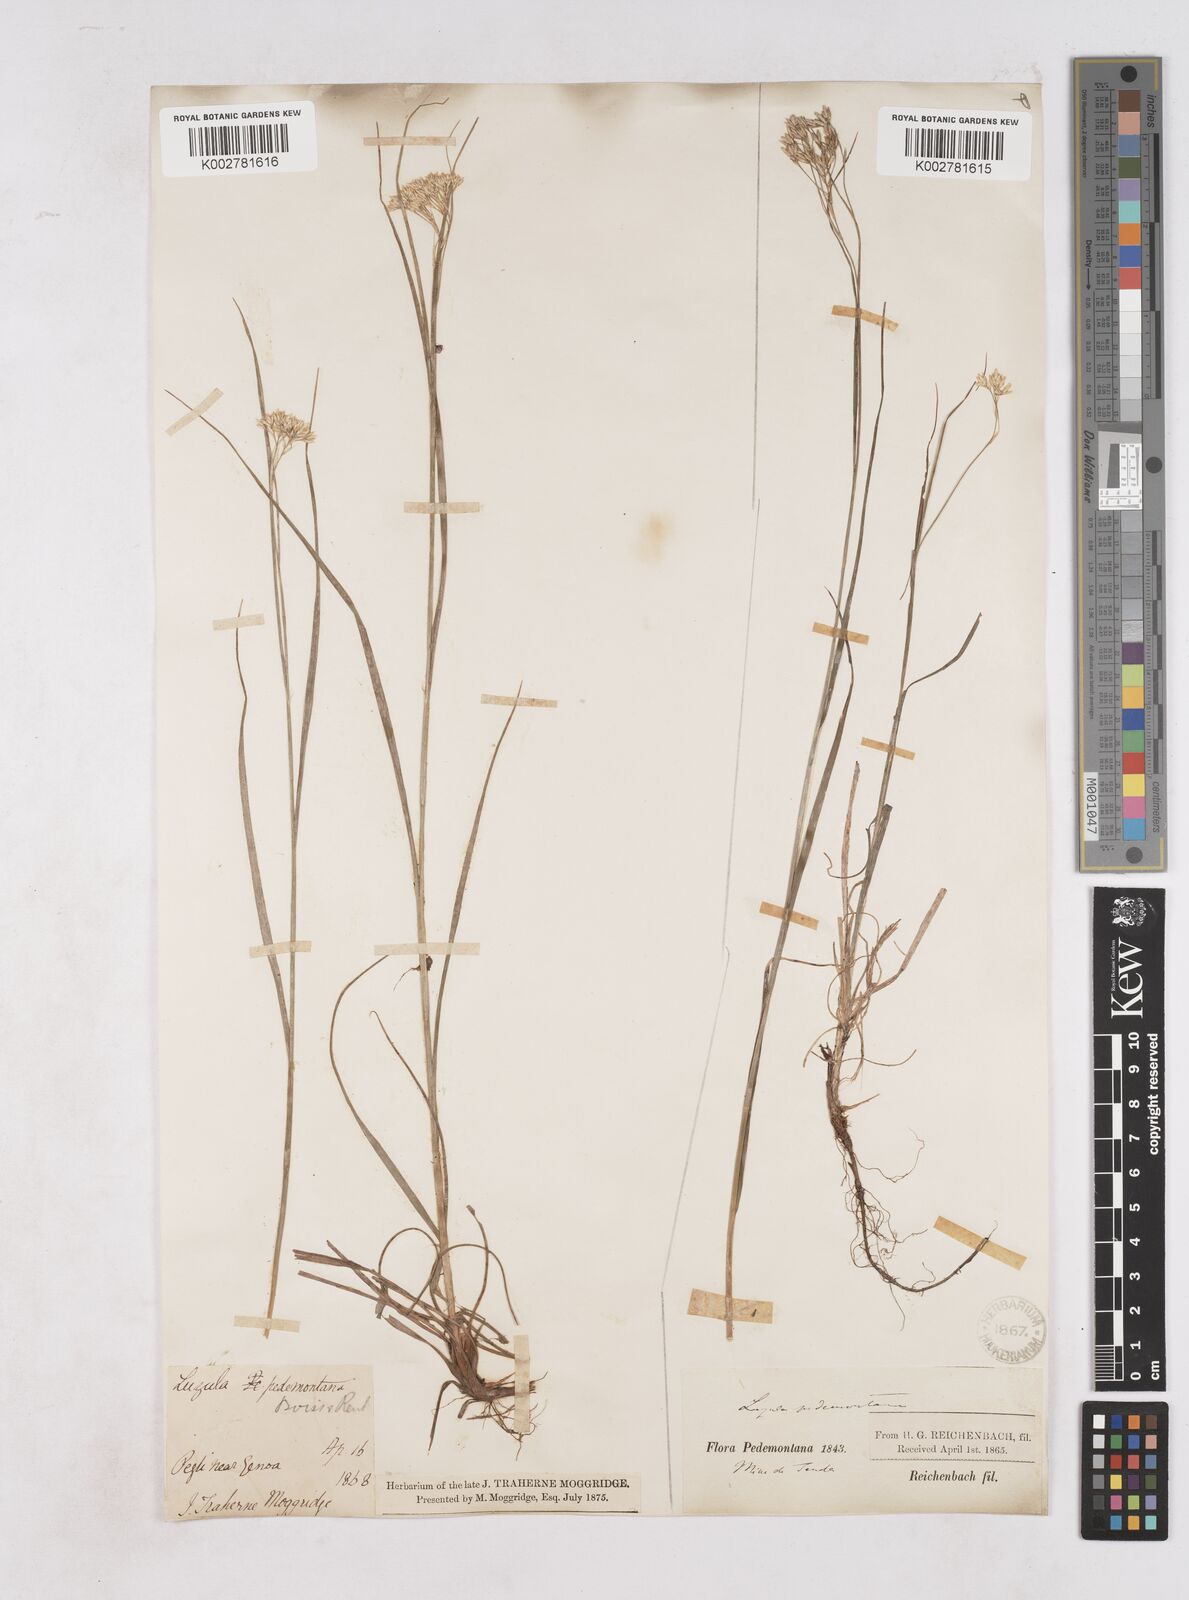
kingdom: Plantae
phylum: Tracheophyta
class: Liliopsida
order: Poales
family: Juncaceae
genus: Luzula
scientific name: Luzula pedemontana
